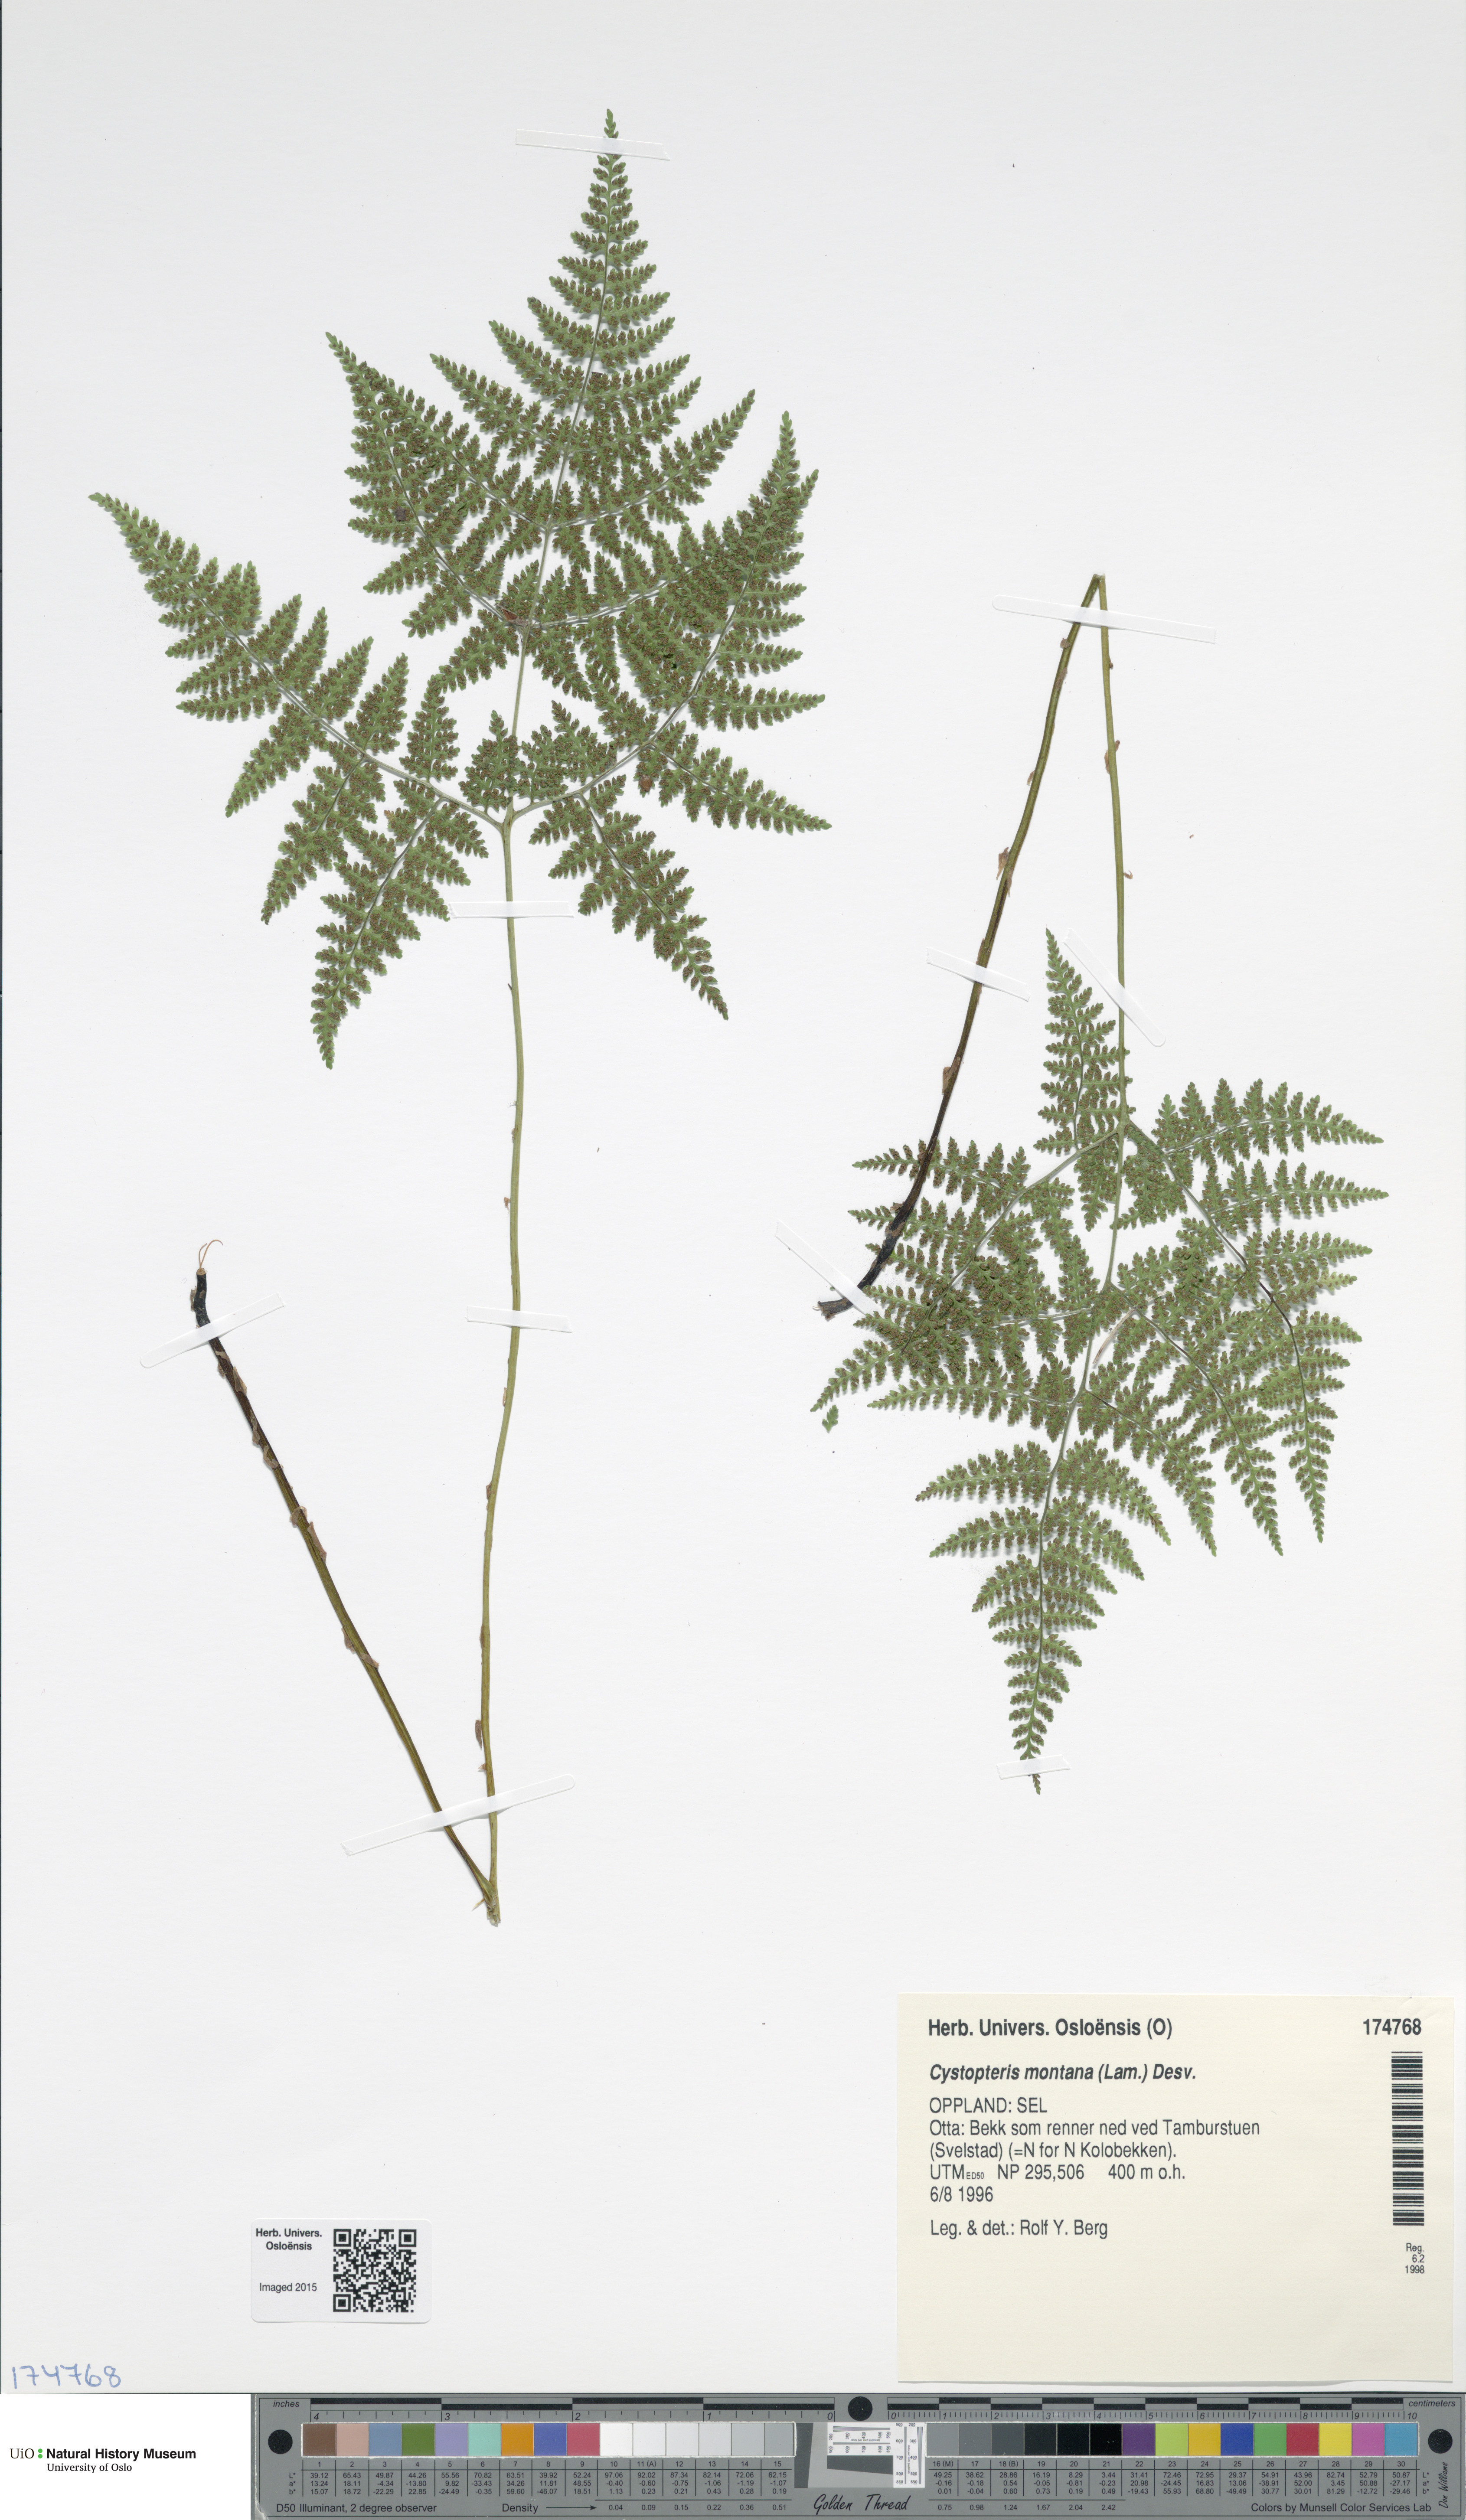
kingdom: Plantae
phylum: Tracheophyta
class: Polypodiopsida
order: Polypodiales
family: Cystopteridaceae
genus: Cystopteris
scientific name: Cystopteris montana
